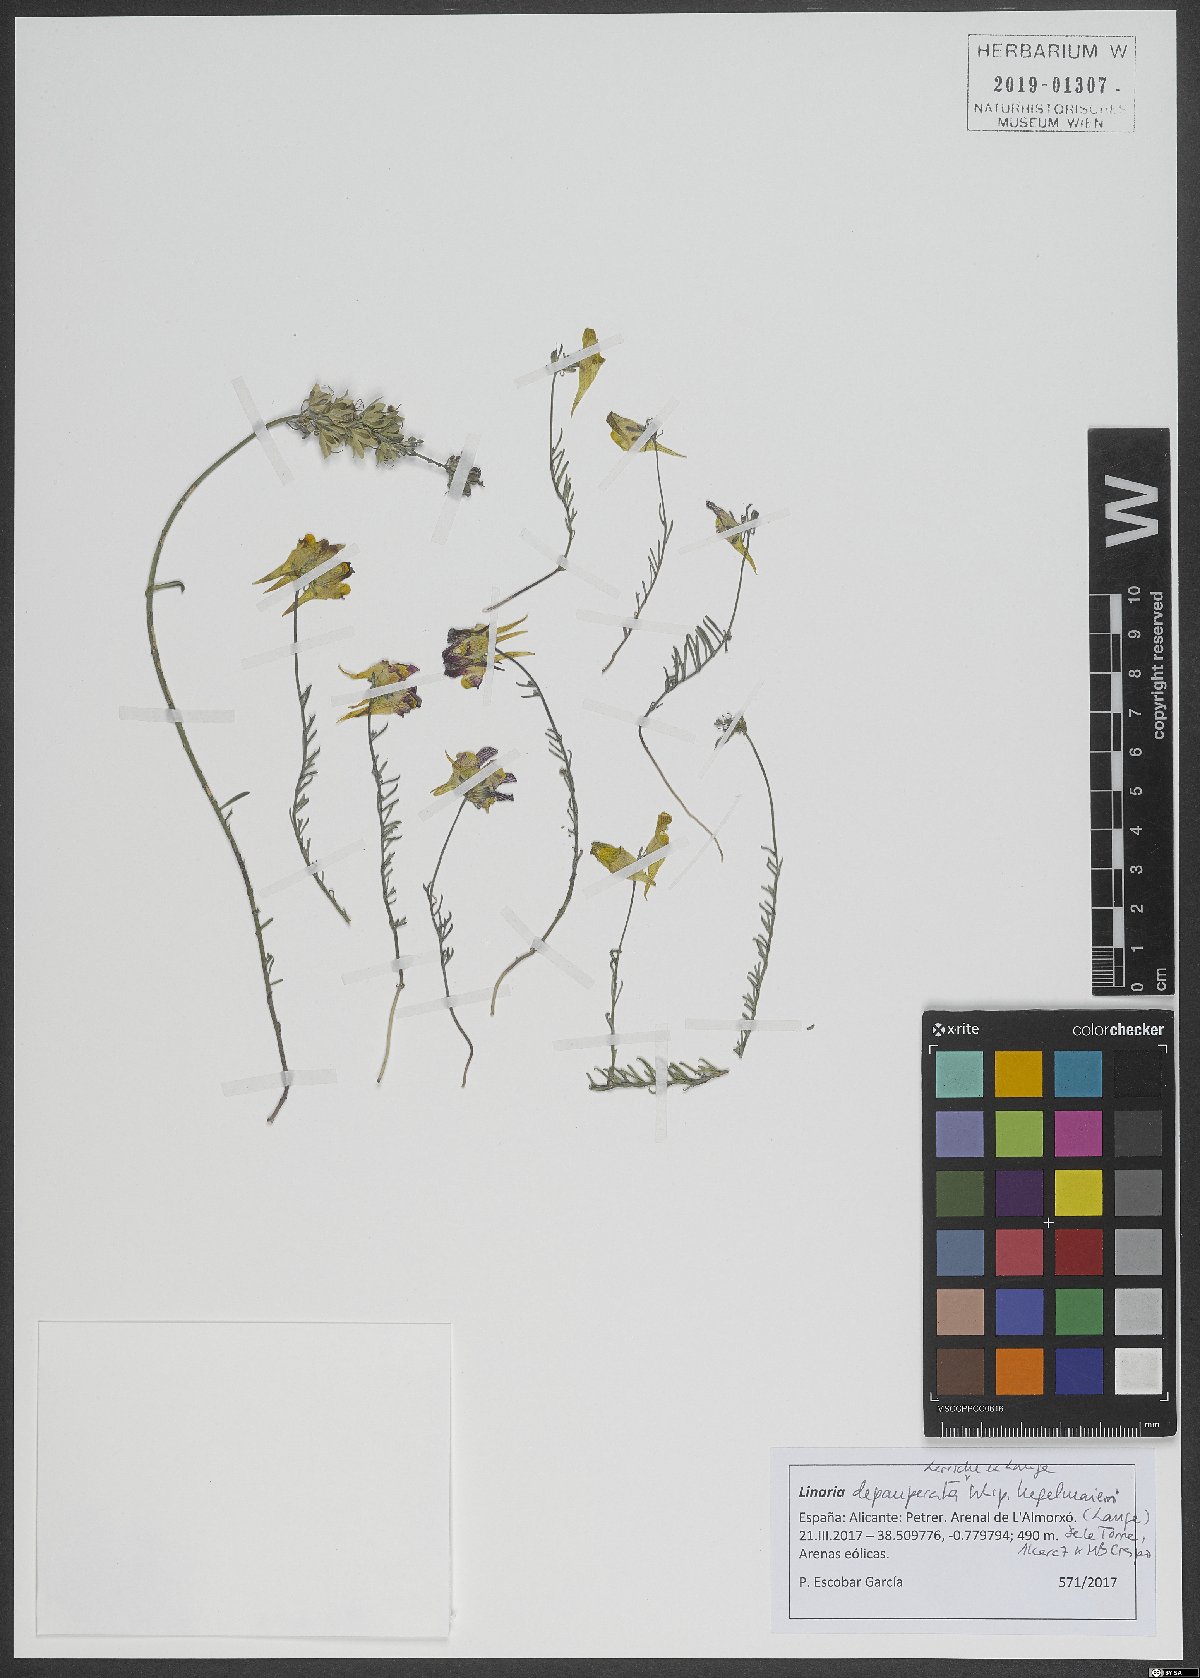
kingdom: Plantae
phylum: Tracheophyta
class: Magnoliopsida
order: Lamiales
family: Plantaginaceae
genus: Linaria
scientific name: Linaria depauperata
